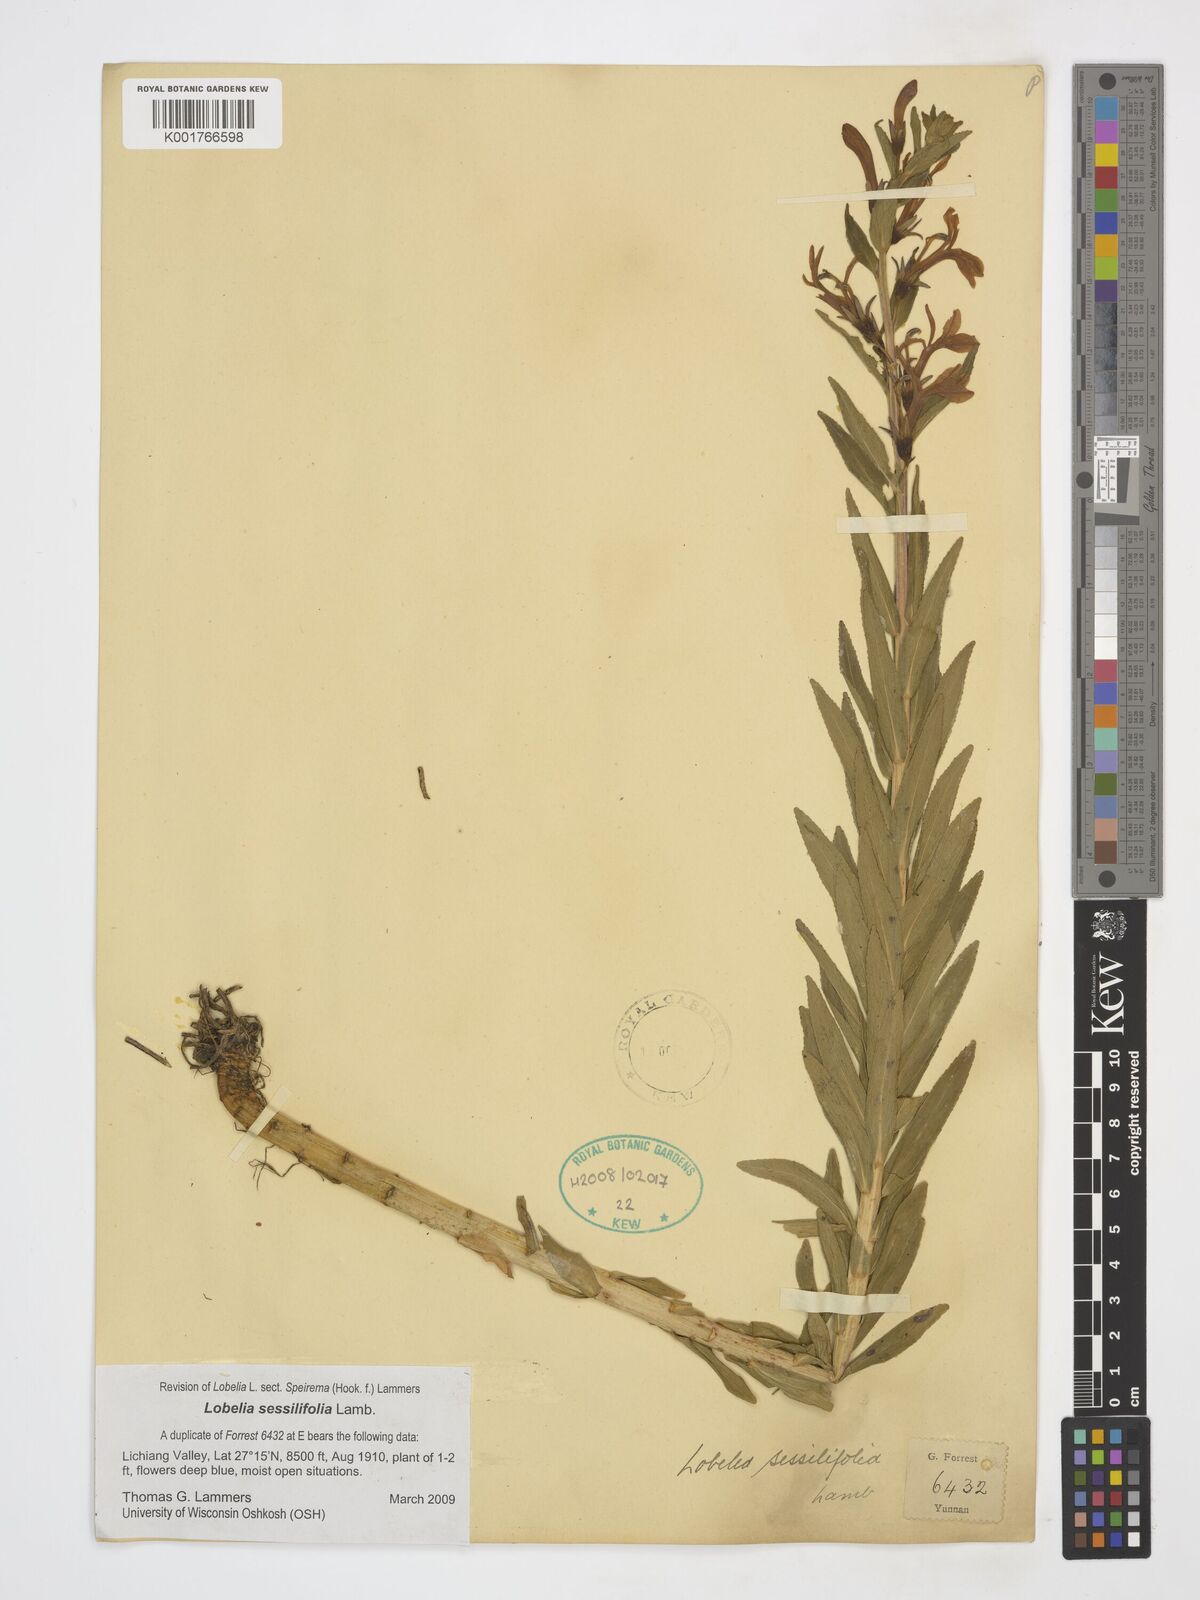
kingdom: Plantae
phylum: Tracheophyta
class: Magnoliopsida
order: Asterales
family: Campanulaceae
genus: Lobelia
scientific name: Lobelia sessilifolia
